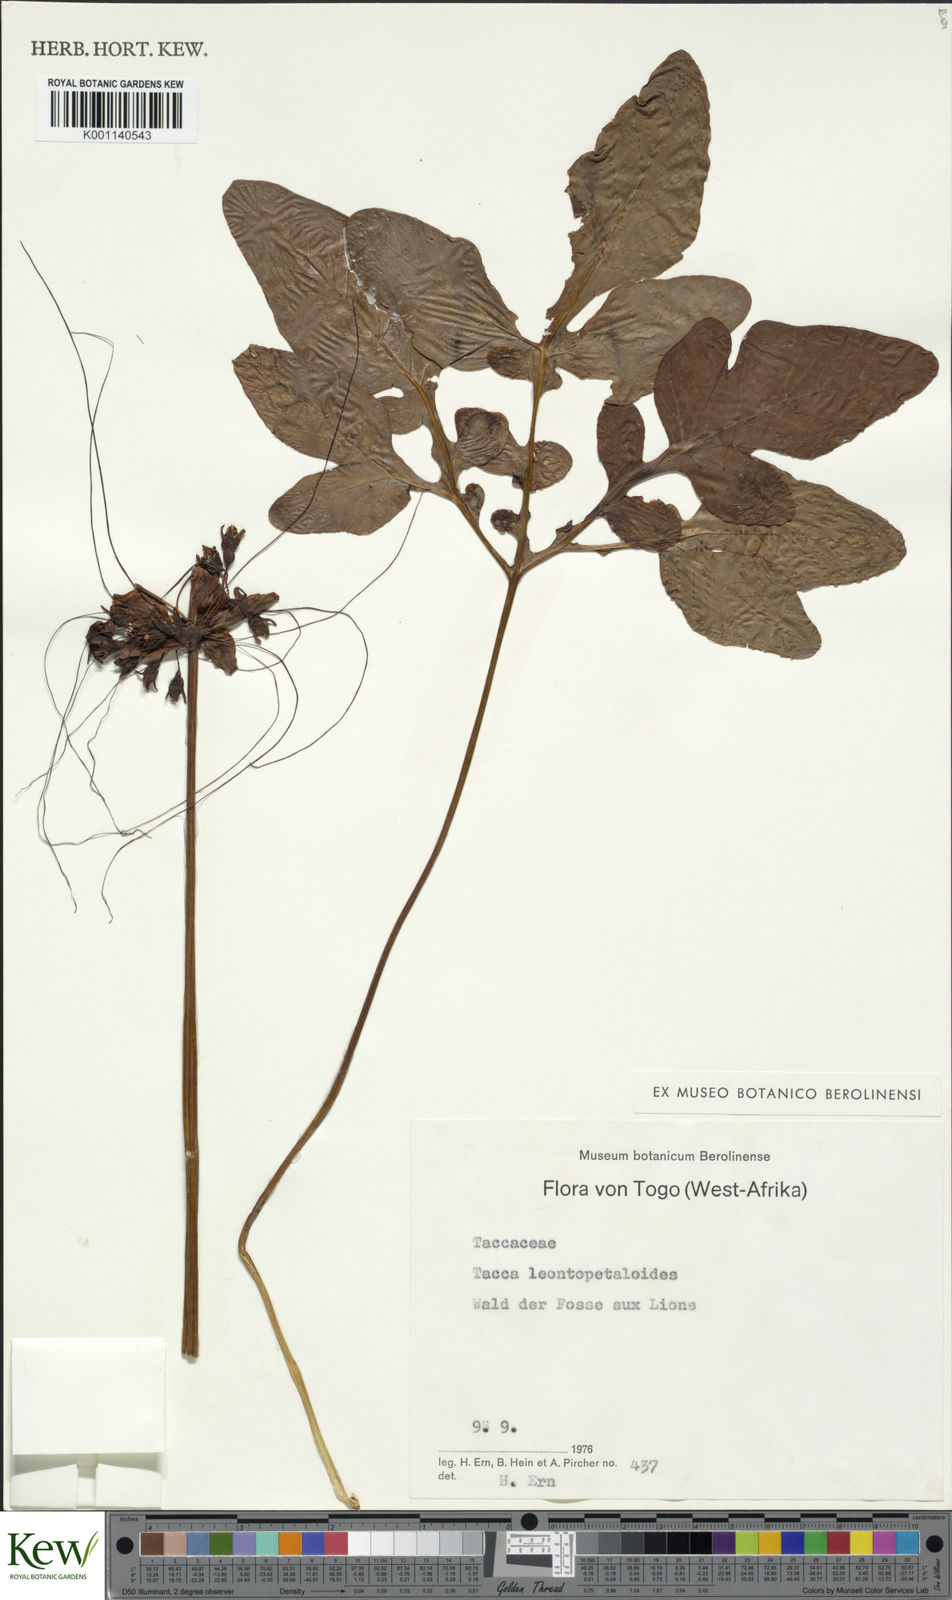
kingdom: Plantae
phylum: Tracheophyta
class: Liliopsida
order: Dioscoreales
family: Dioscoreaceae
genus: Tacca
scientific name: Tacca leontopetaloides
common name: Arrowroot
